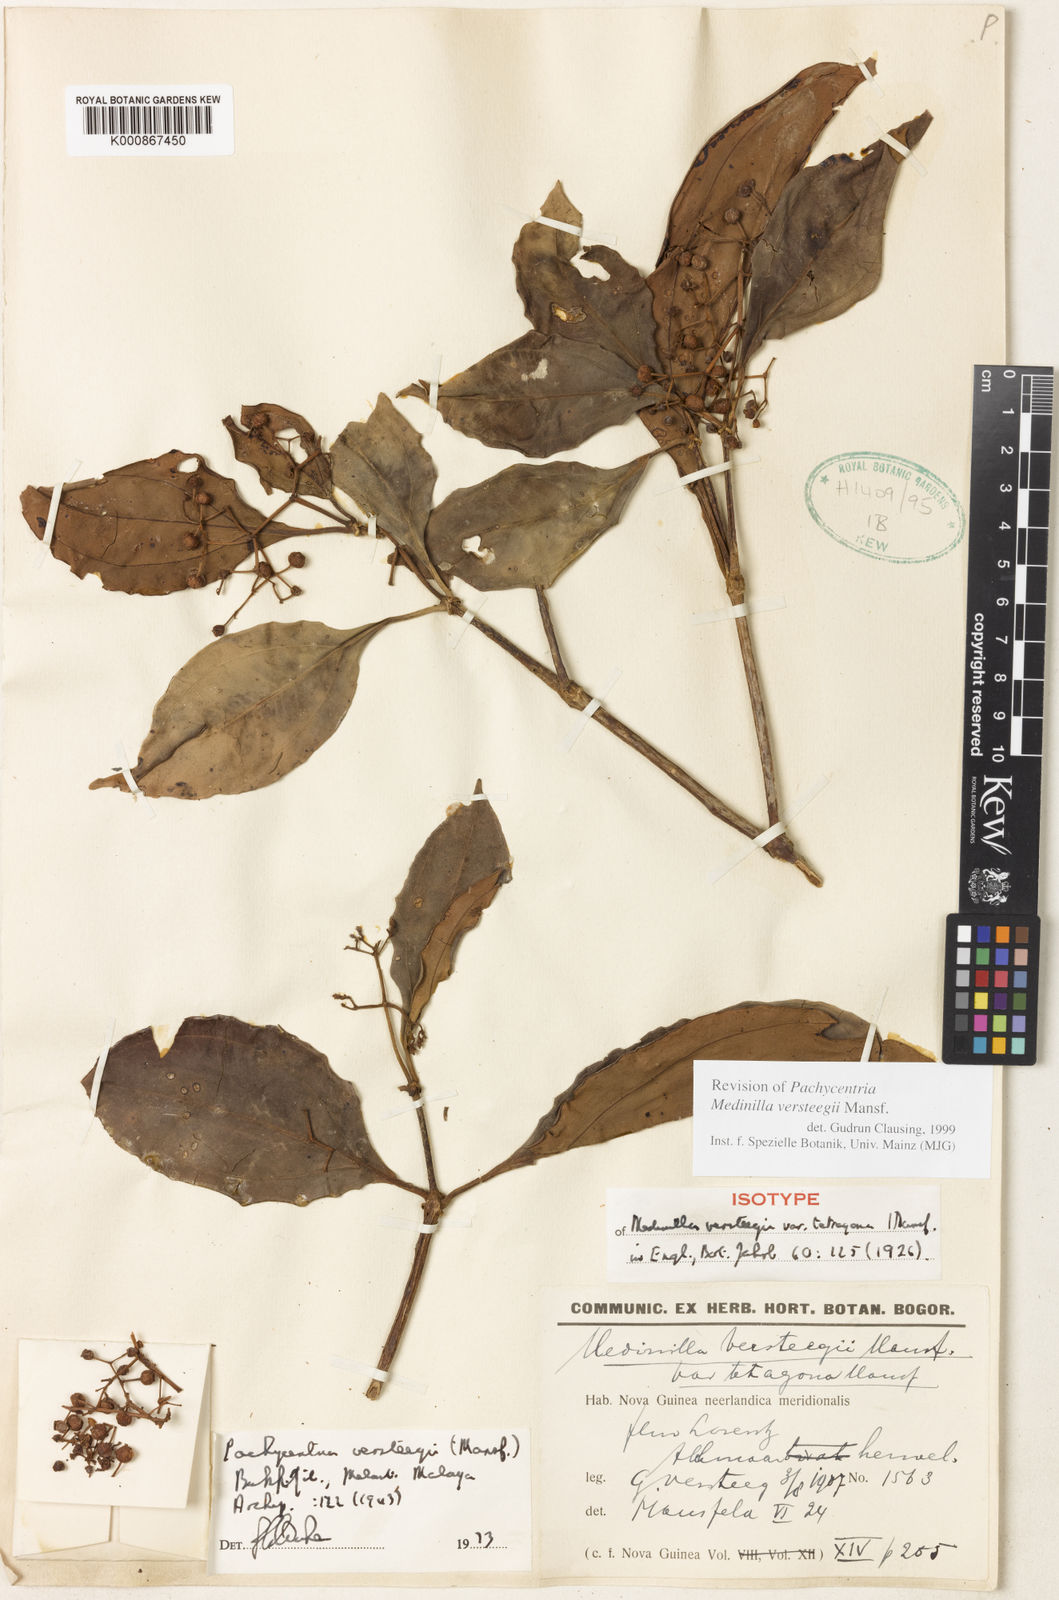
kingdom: Plantae
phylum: Tracheophyta
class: Magnoliopsida
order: Myrtales
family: Melastomataceae
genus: Medinilla
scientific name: Medinilla versteegii
